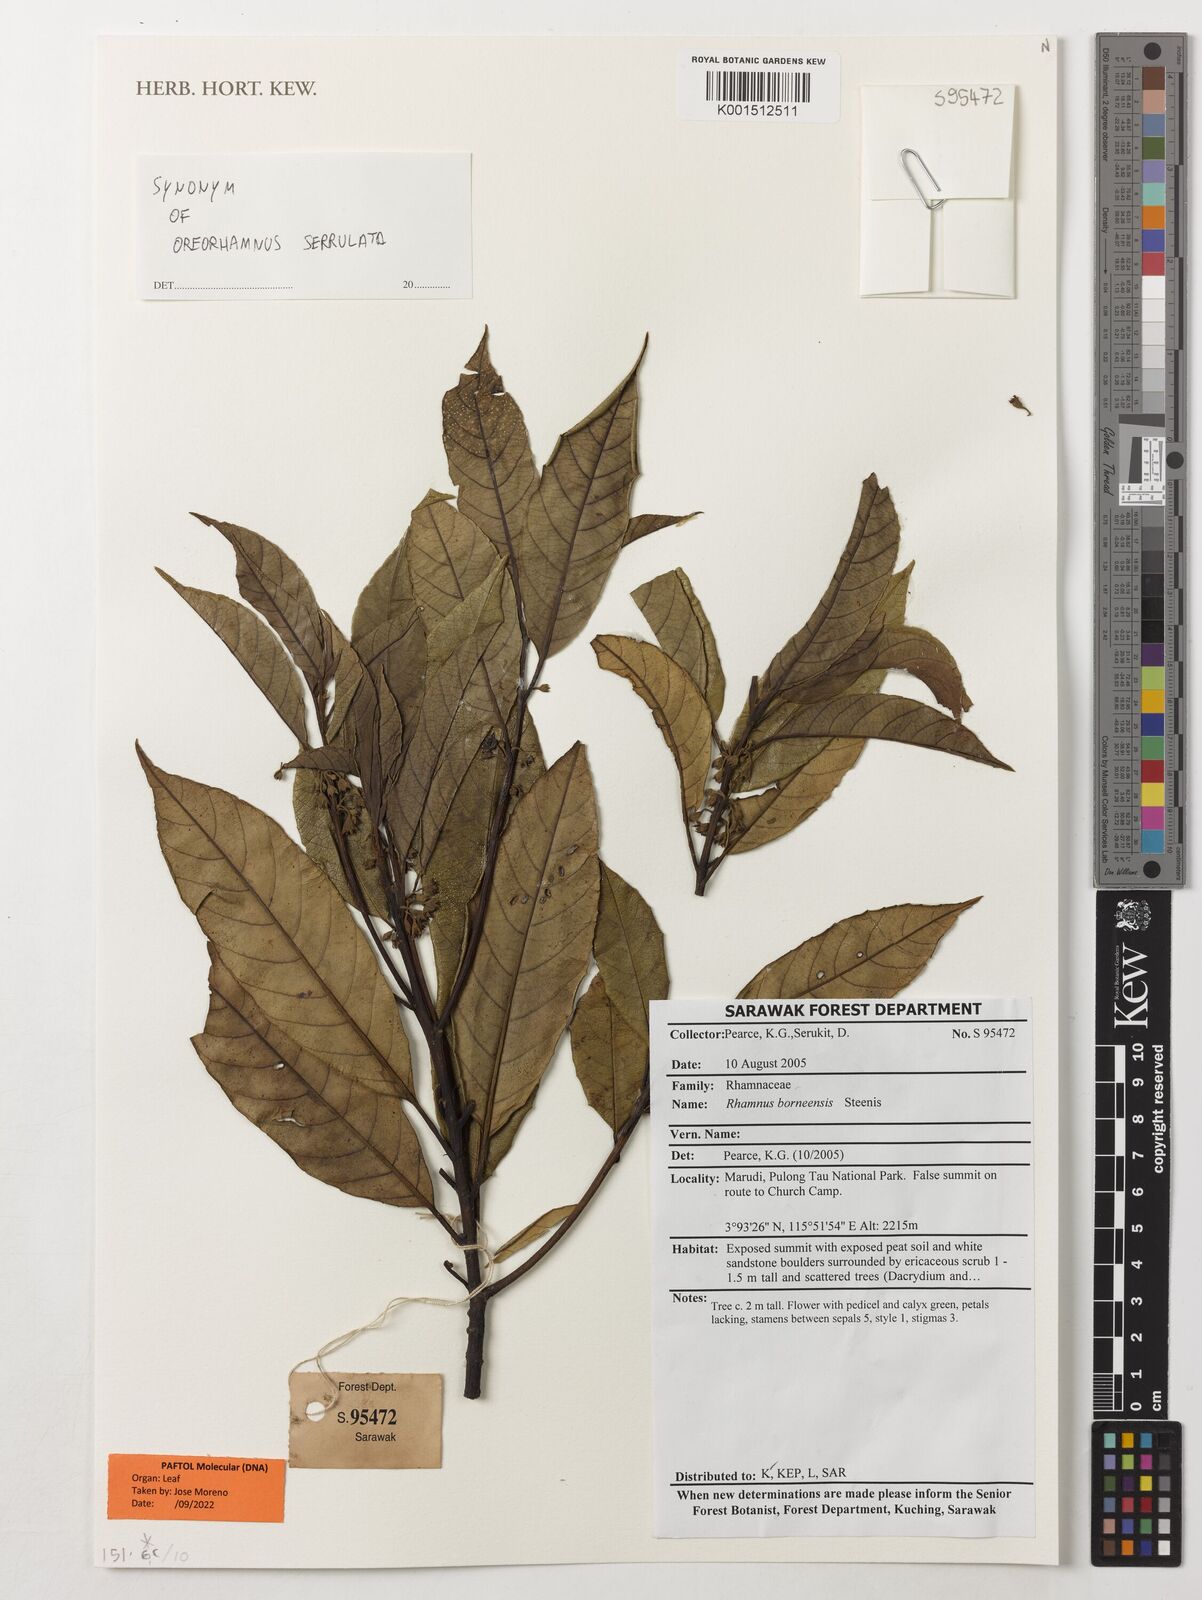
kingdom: Plantae
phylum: Tracheophyta
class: Magnoliopsida
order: Rosales
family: Rhamnaceae
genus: Frangula
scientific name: Frangula borneensis
